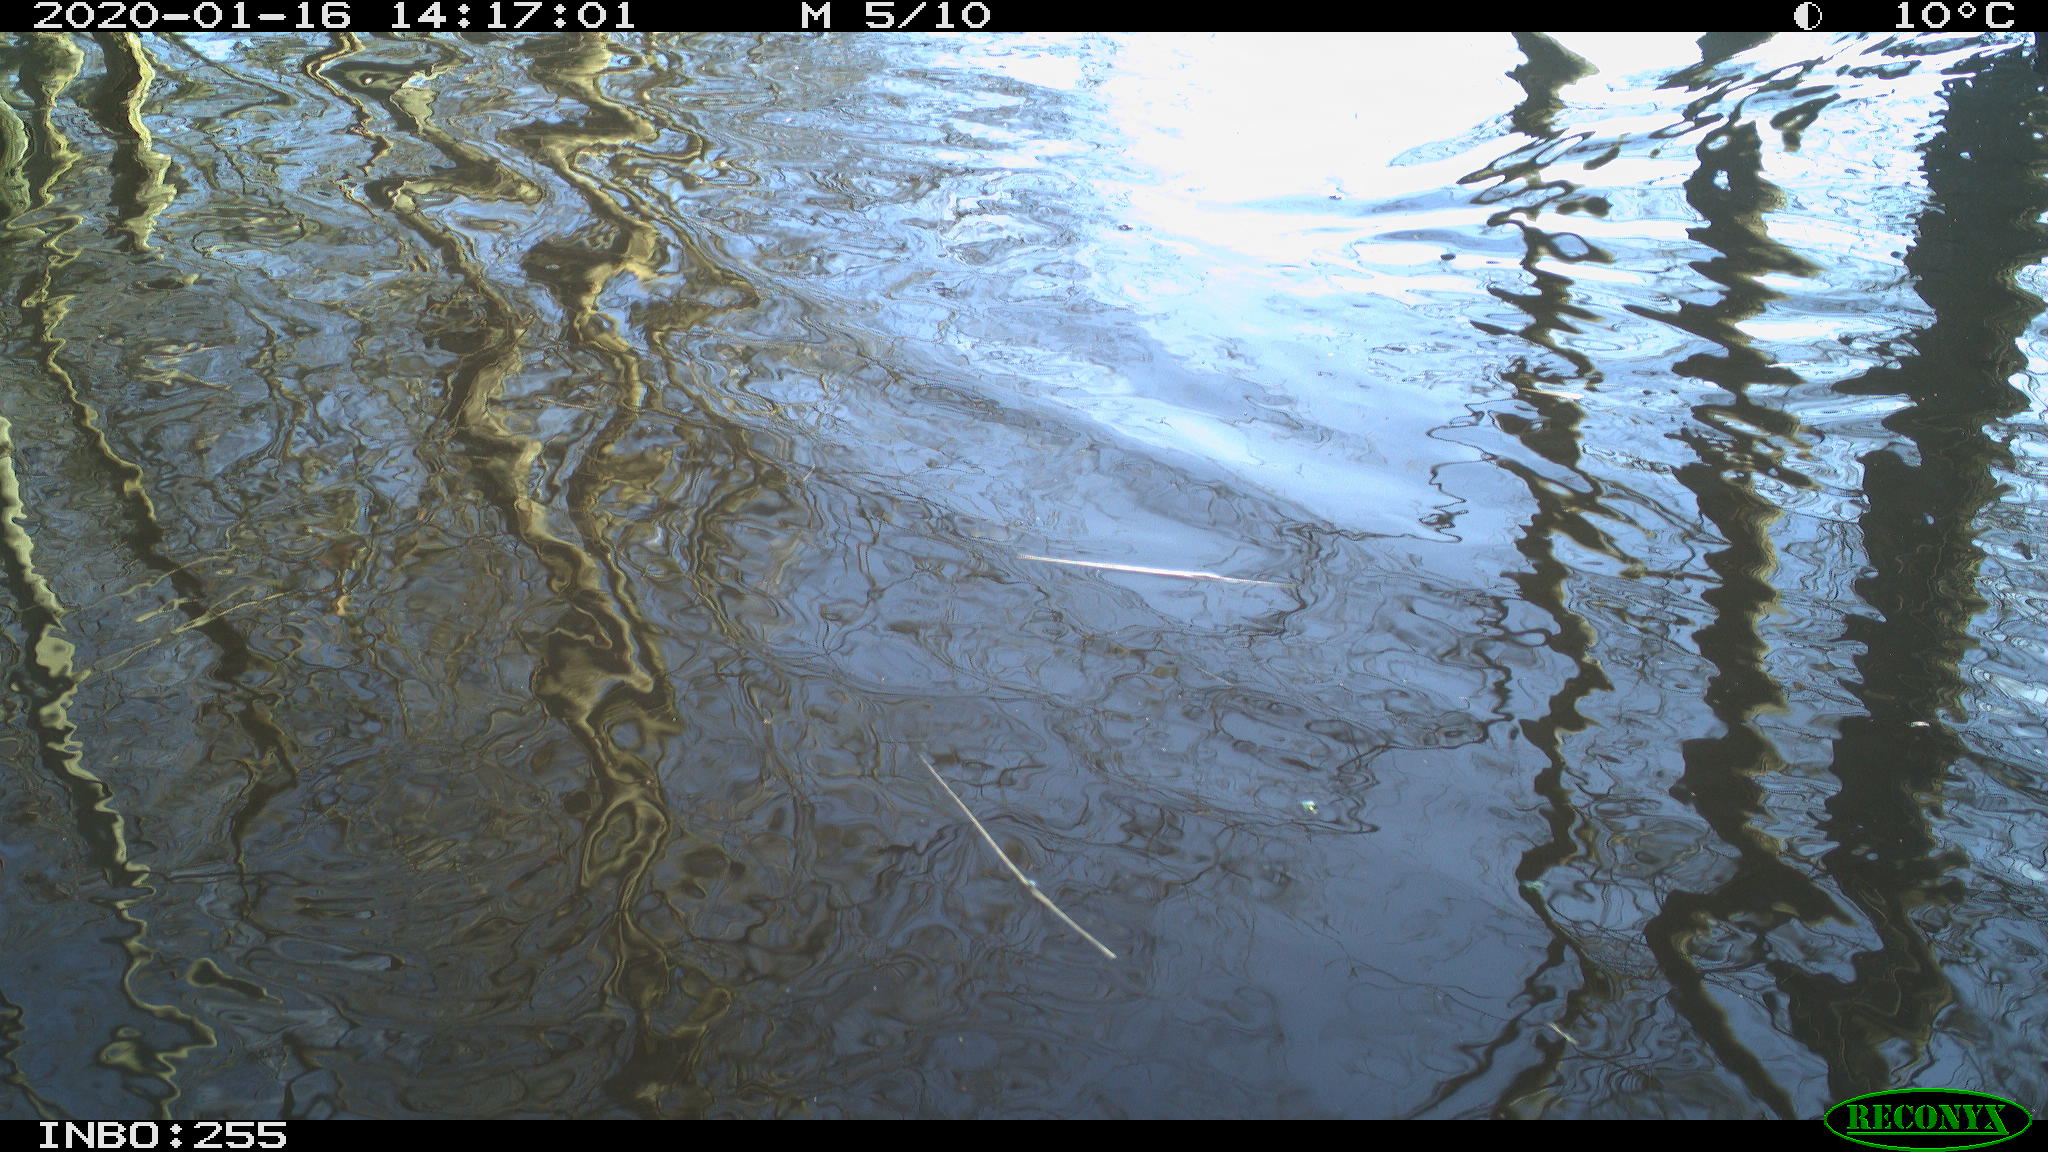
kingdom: Animalia
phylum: Chordata
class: Aves
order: Gruiformes
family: Rallidae
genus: Gallinula
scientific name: Gallinula chloropus
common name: Common moorhen
